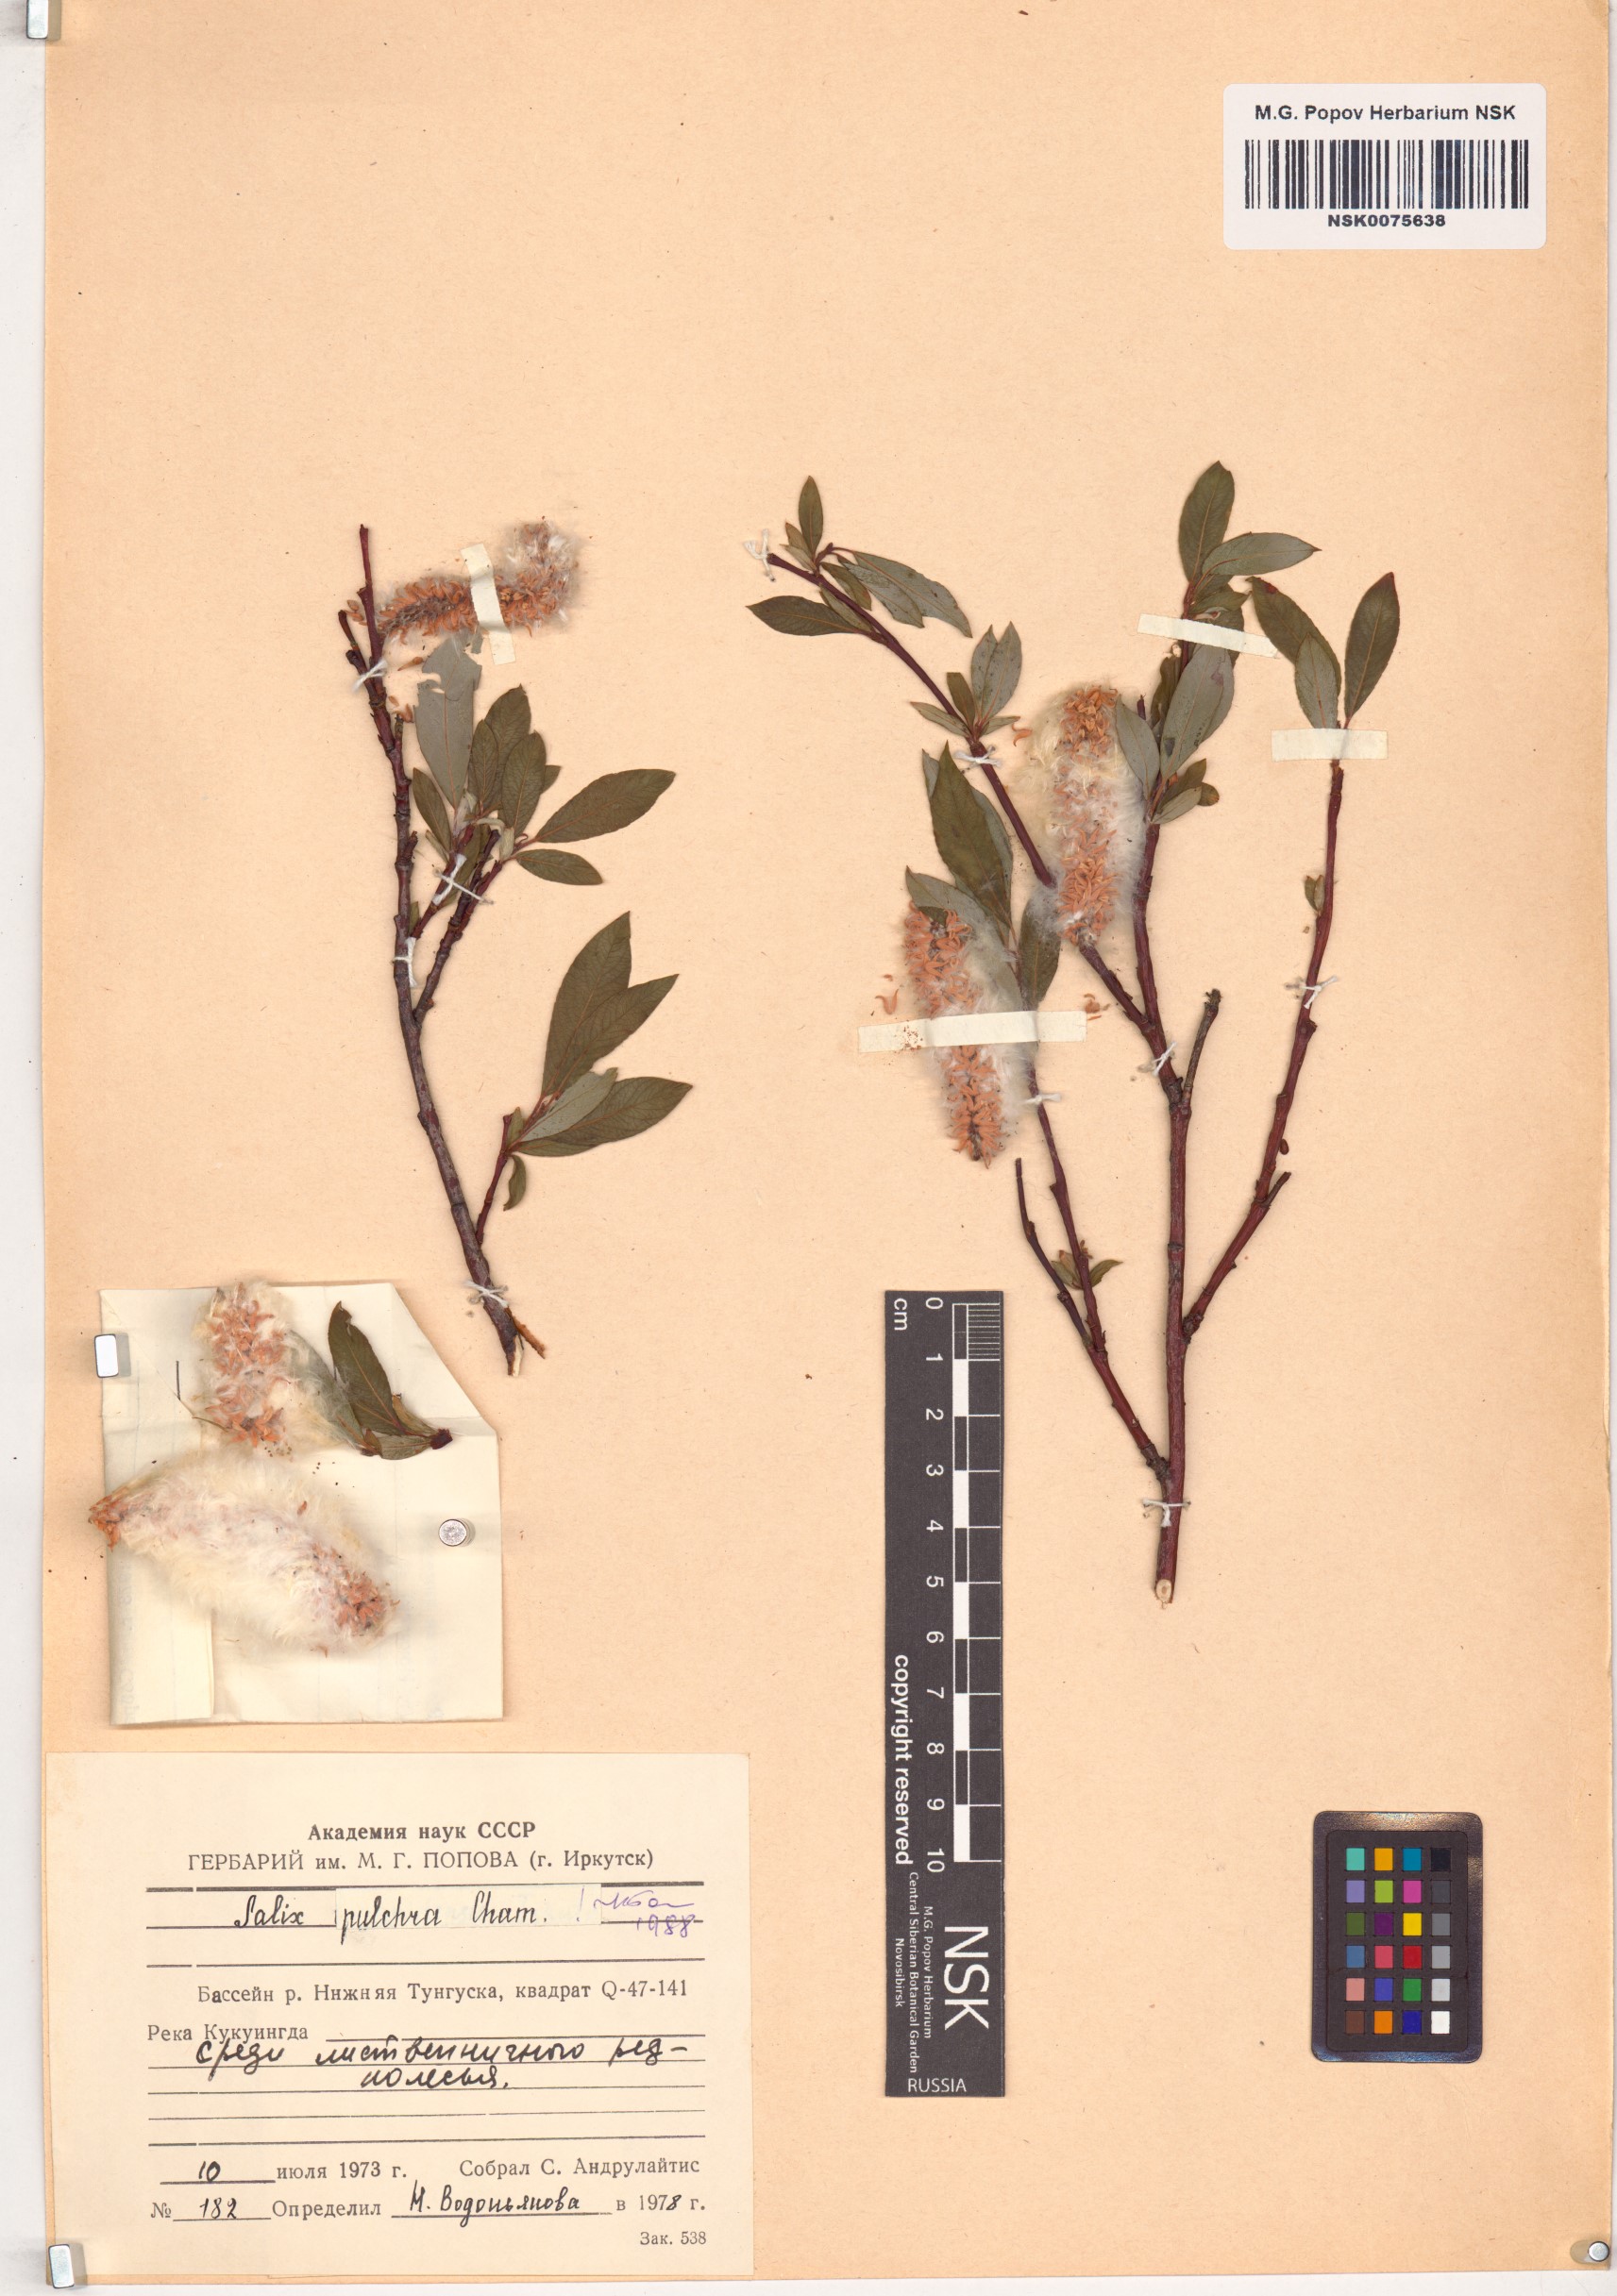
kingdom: Plantae
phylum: Tracheophyta
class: Magnoliopsida
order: Malpighiales
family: Salicaceae
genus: Salix
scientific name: Salix pulchra
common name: Diamond-leaved willow
